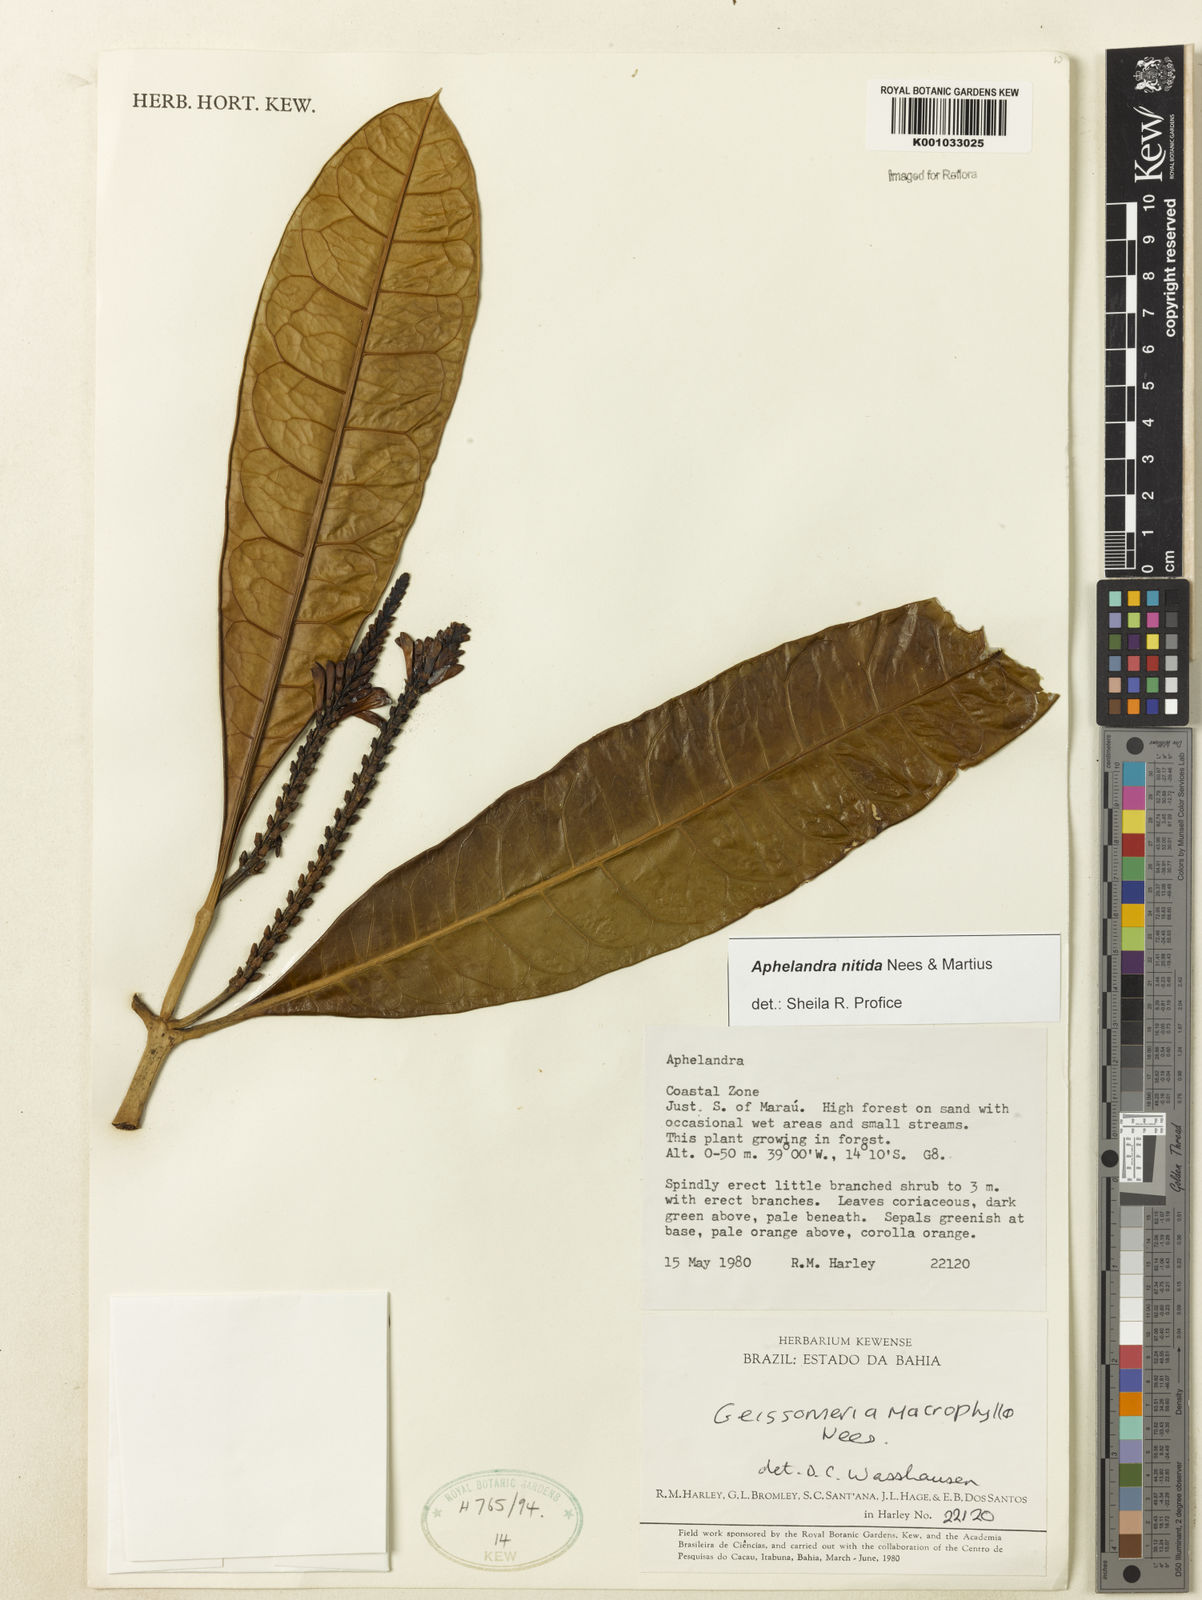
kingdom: Plantae
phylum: Tracheophyta
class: Magnoliopsida
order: Lamiales
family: Acanthaceae
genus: Aphelandra
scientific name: Aphelandra nitida
